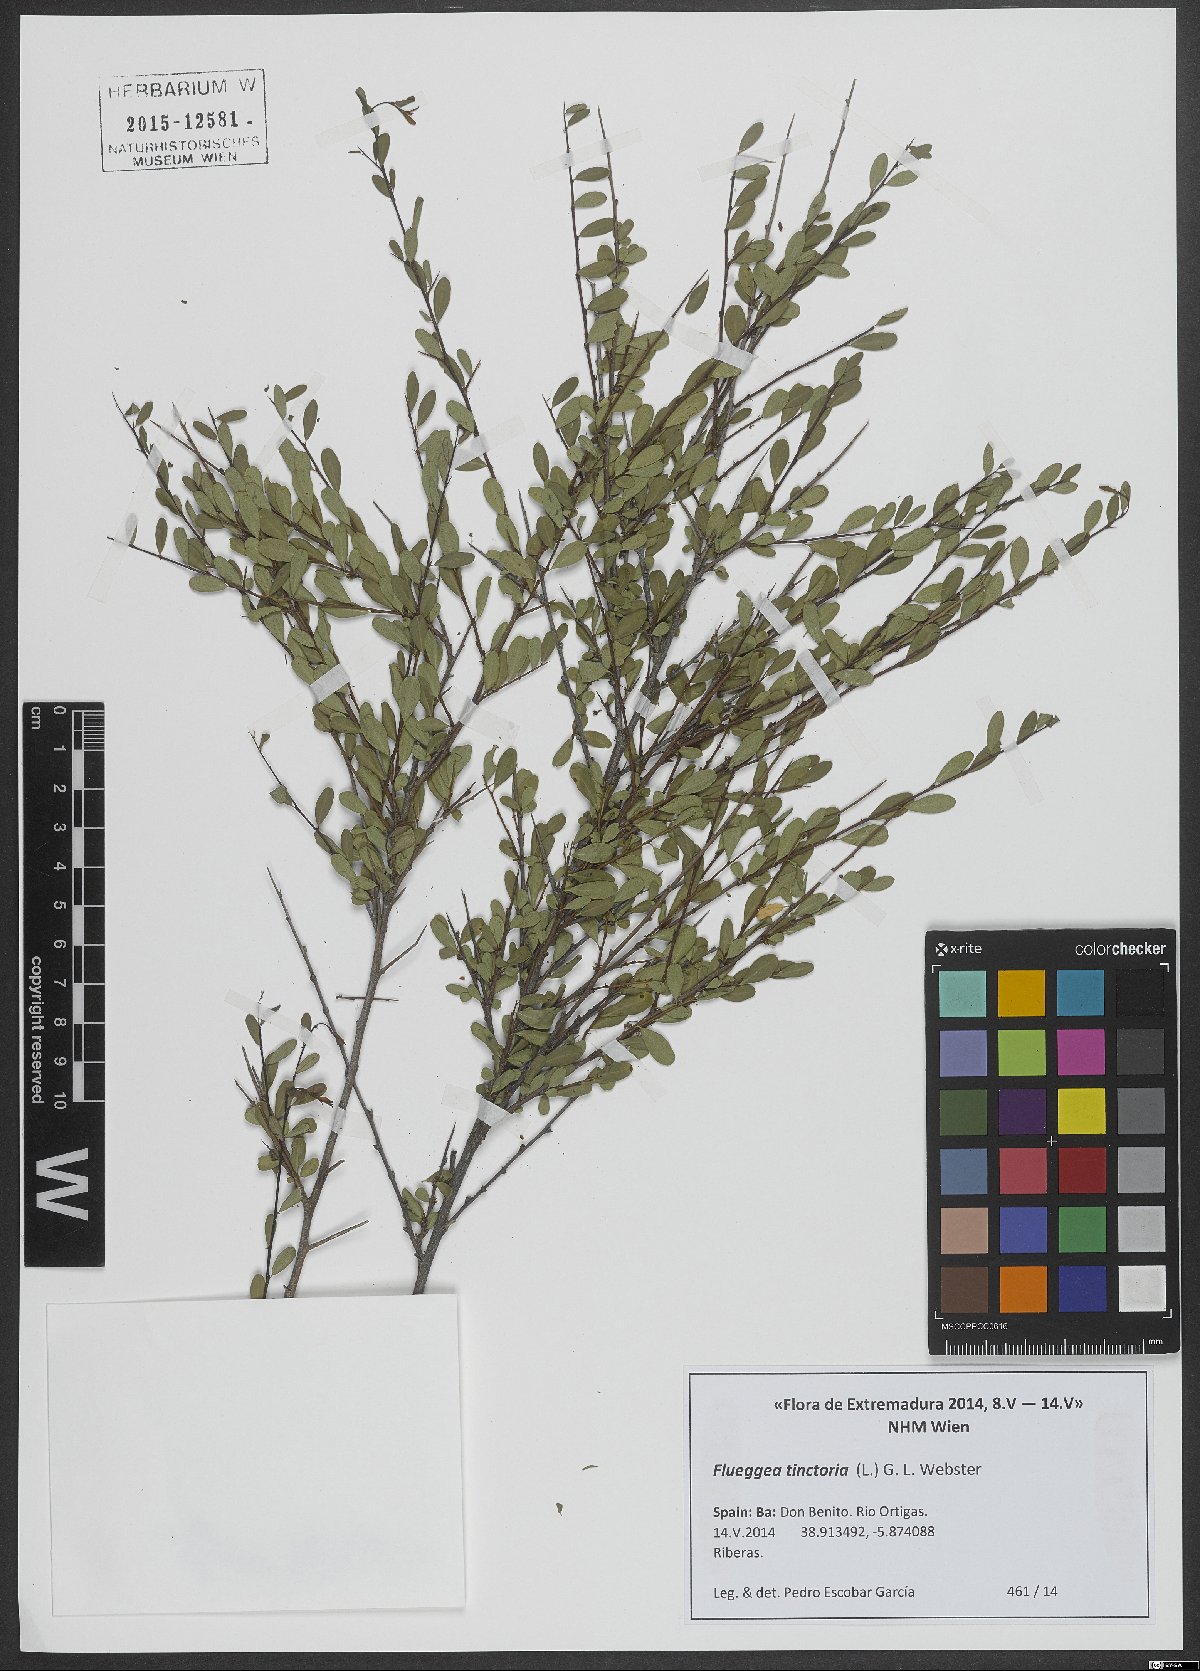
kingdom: Plantae
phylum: Tracheophyta
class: Magnoliopsida
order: Malpighiales
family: Phyllanthaceae
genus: Flueggea
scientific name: Flueggea tinctoria
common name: Tamujo
